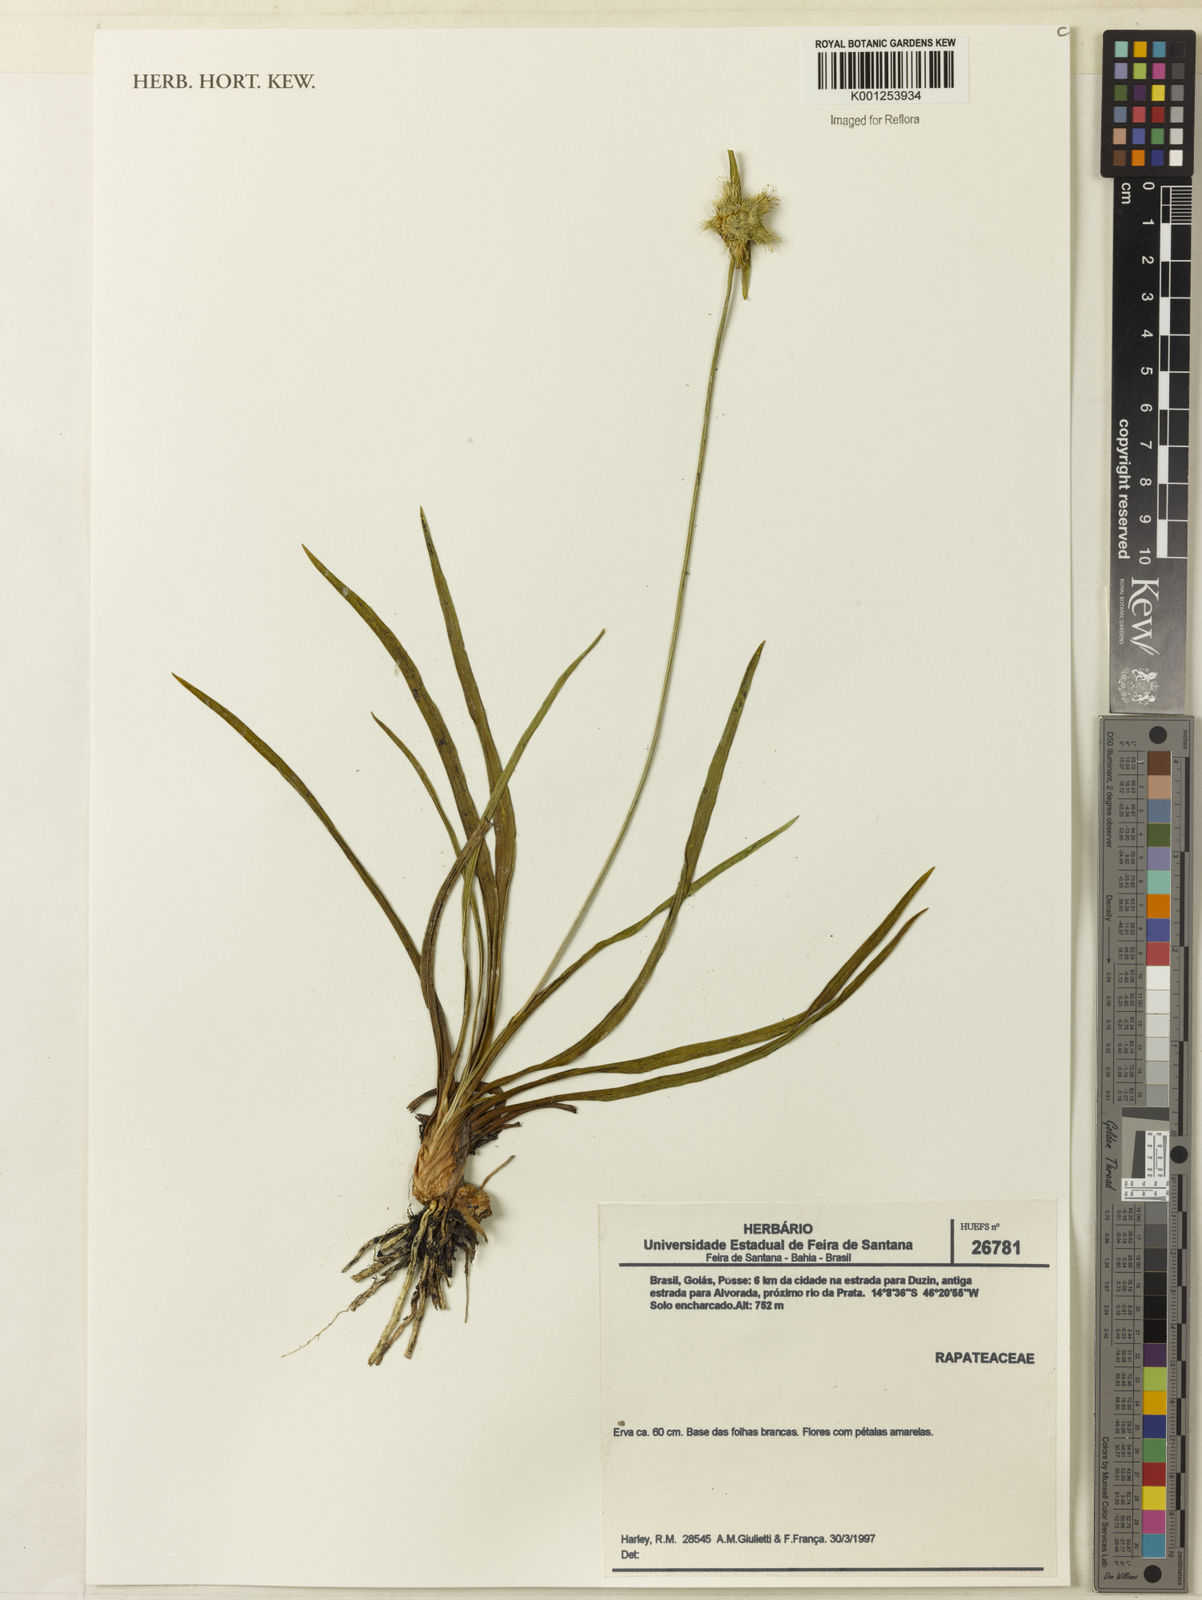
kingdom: Plantae
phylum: Tracheophyta
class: Liliopsida
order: Poales
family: Rapateaceae
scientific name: Rapateaceae
